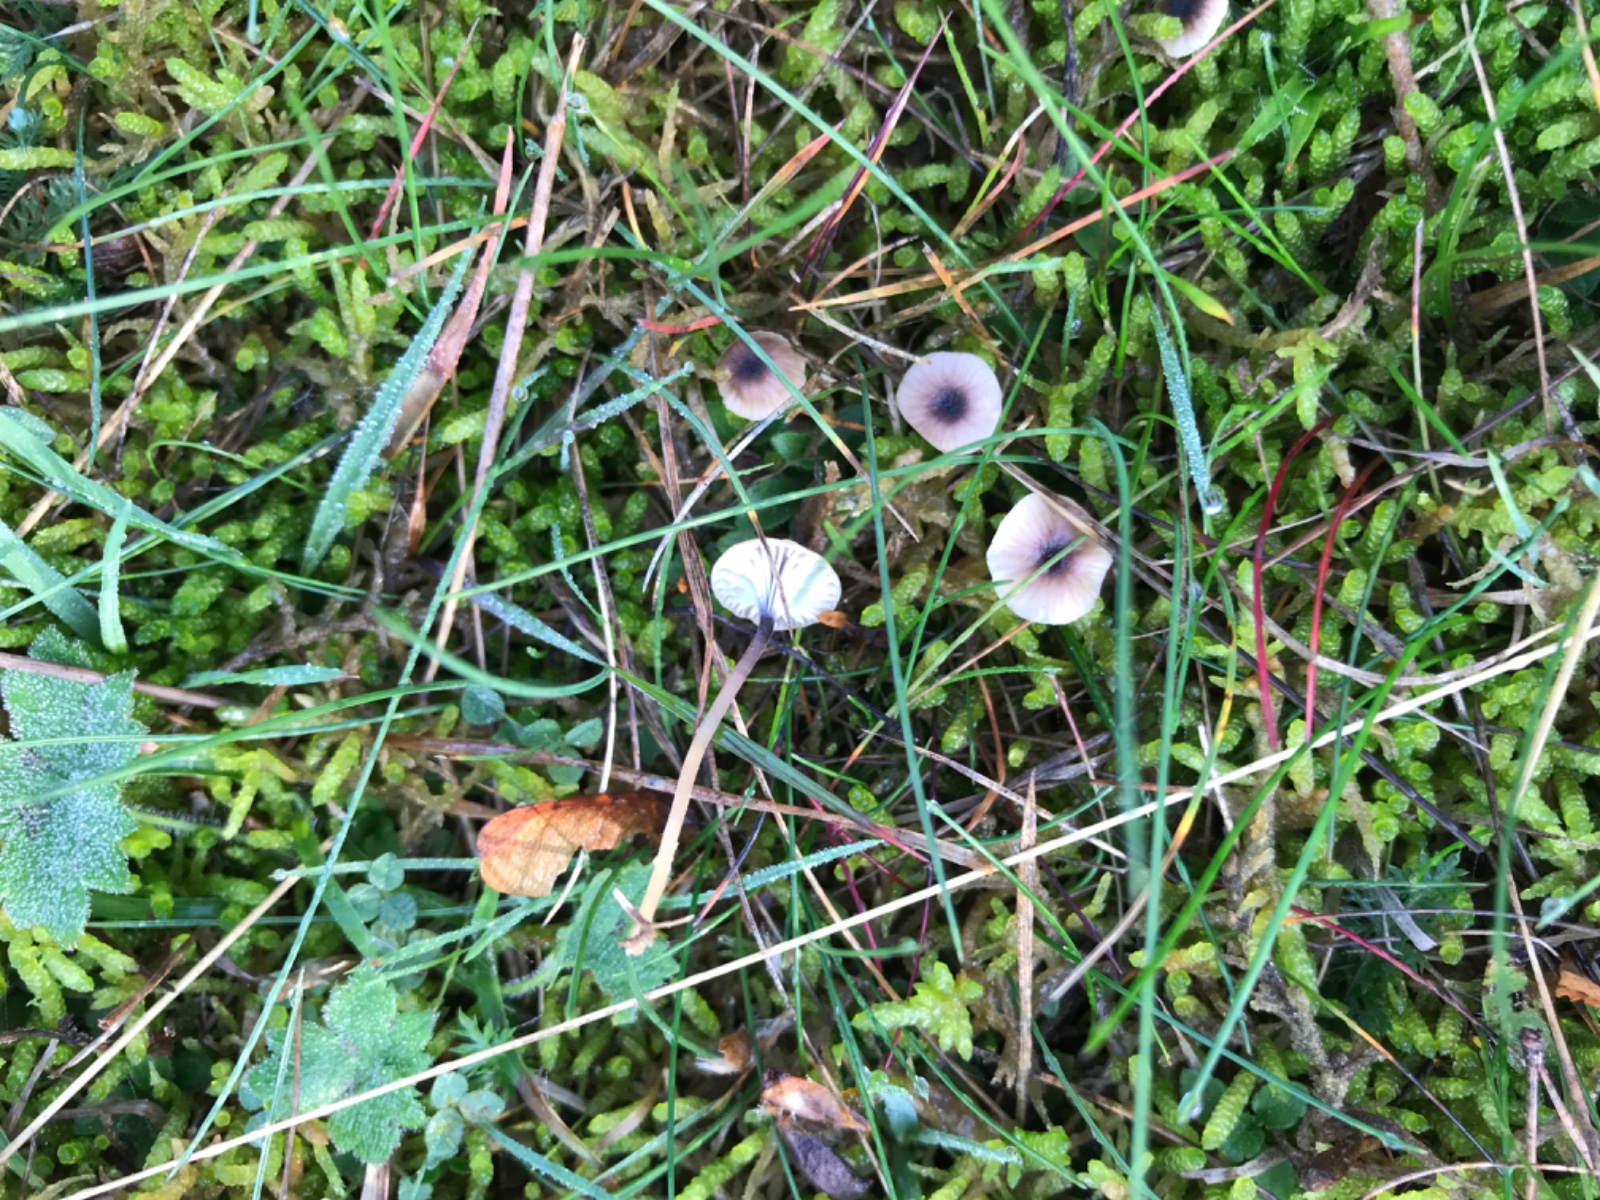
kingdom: Fungi
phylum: Basidiomycota
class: Agaricomycetes
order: Hymenochaetales
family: Rickenellaceae
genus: Rickenella
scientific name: Rickenella swartzii
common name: finstokket mosnavlehat
